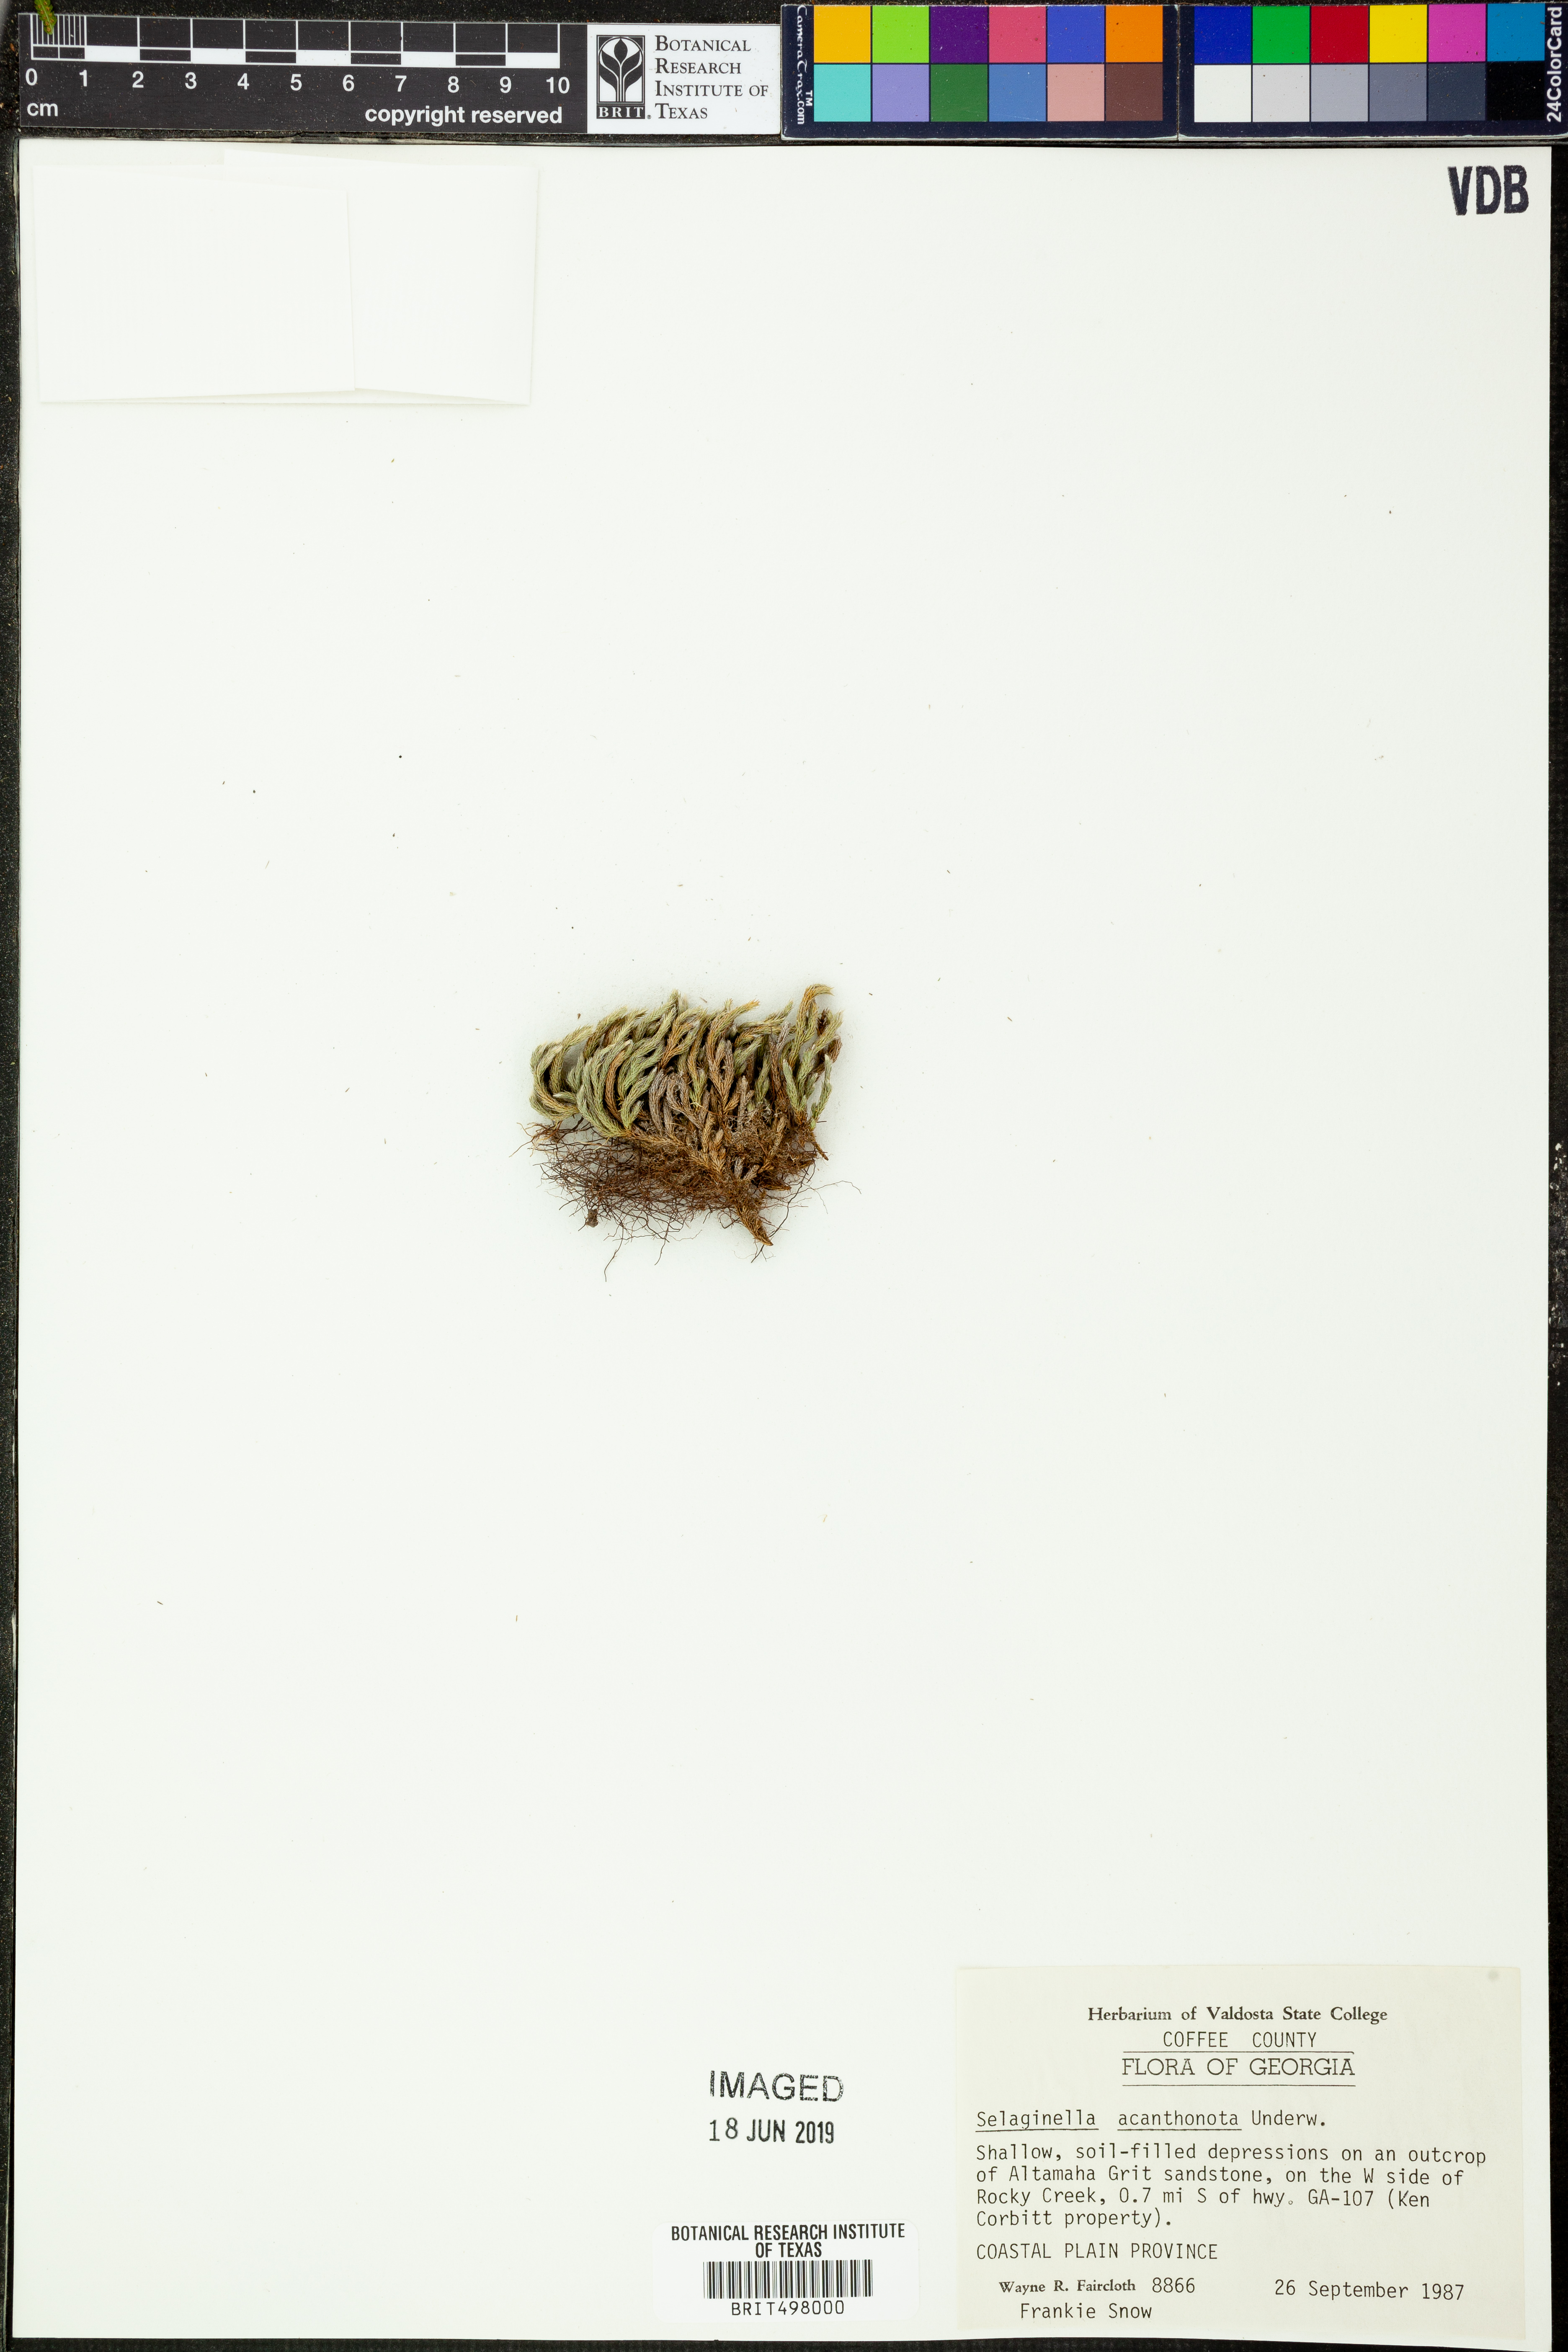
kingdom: Plantae
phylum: Tracheophyta
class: Lycopodiopsida
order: Selaginellales
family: Selaginellaceae
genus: Selaginella
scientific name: Selaginella acanthonota
